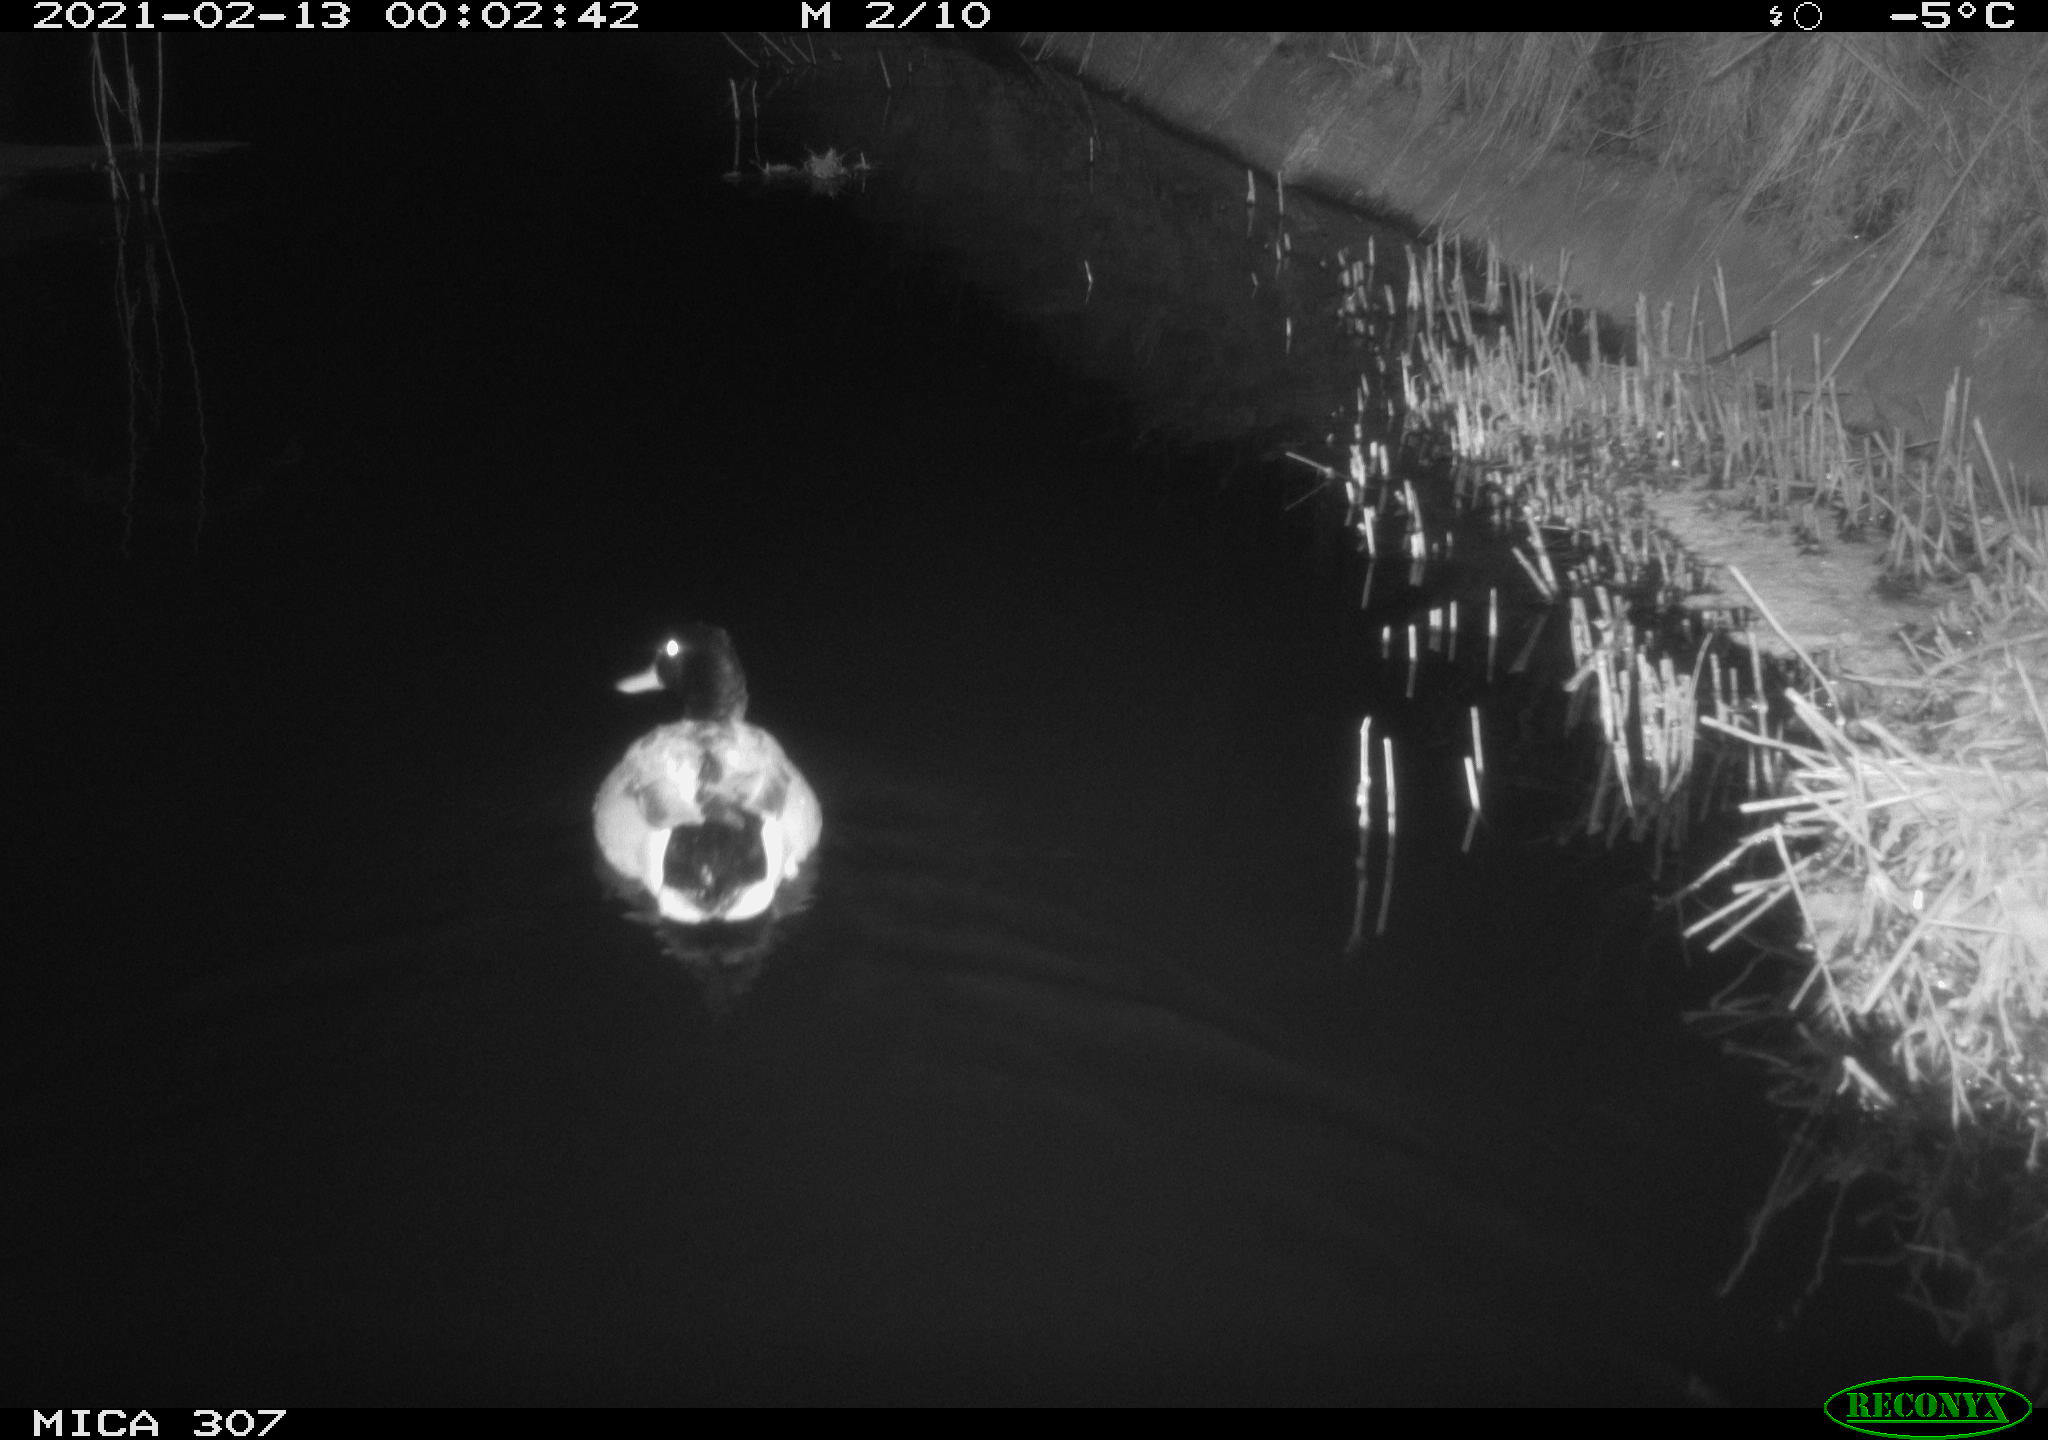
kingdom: Animalia
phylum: Chordata
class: Aves
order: Anseriformes
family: Anatidae
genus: Anas
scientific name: Anas platyrhynchos
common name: Mallard
